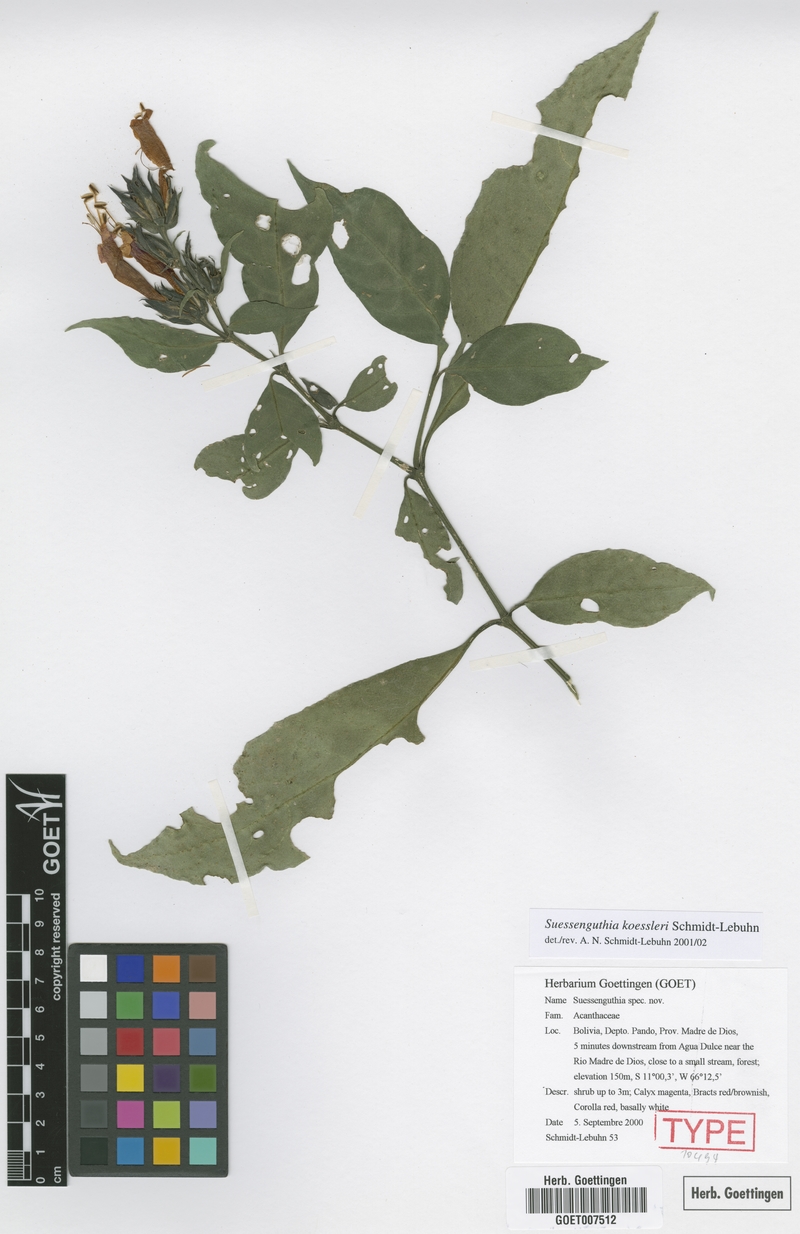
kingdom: Plantae
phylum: Tracheophyta
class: Magnoliopsida
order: Lamiales
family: Acanthaceae
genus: Suessenguthia
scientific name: Suessenguthia koessleri
